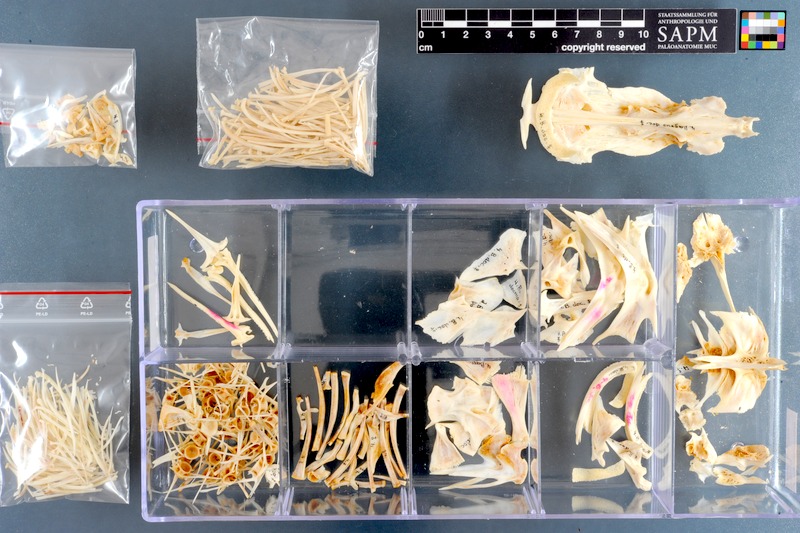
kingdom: Animalia
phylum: Chordata
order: Siluriformes
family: Bagridae
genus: Bagrus
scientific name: Bagrus docmak
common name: Silver catfish
